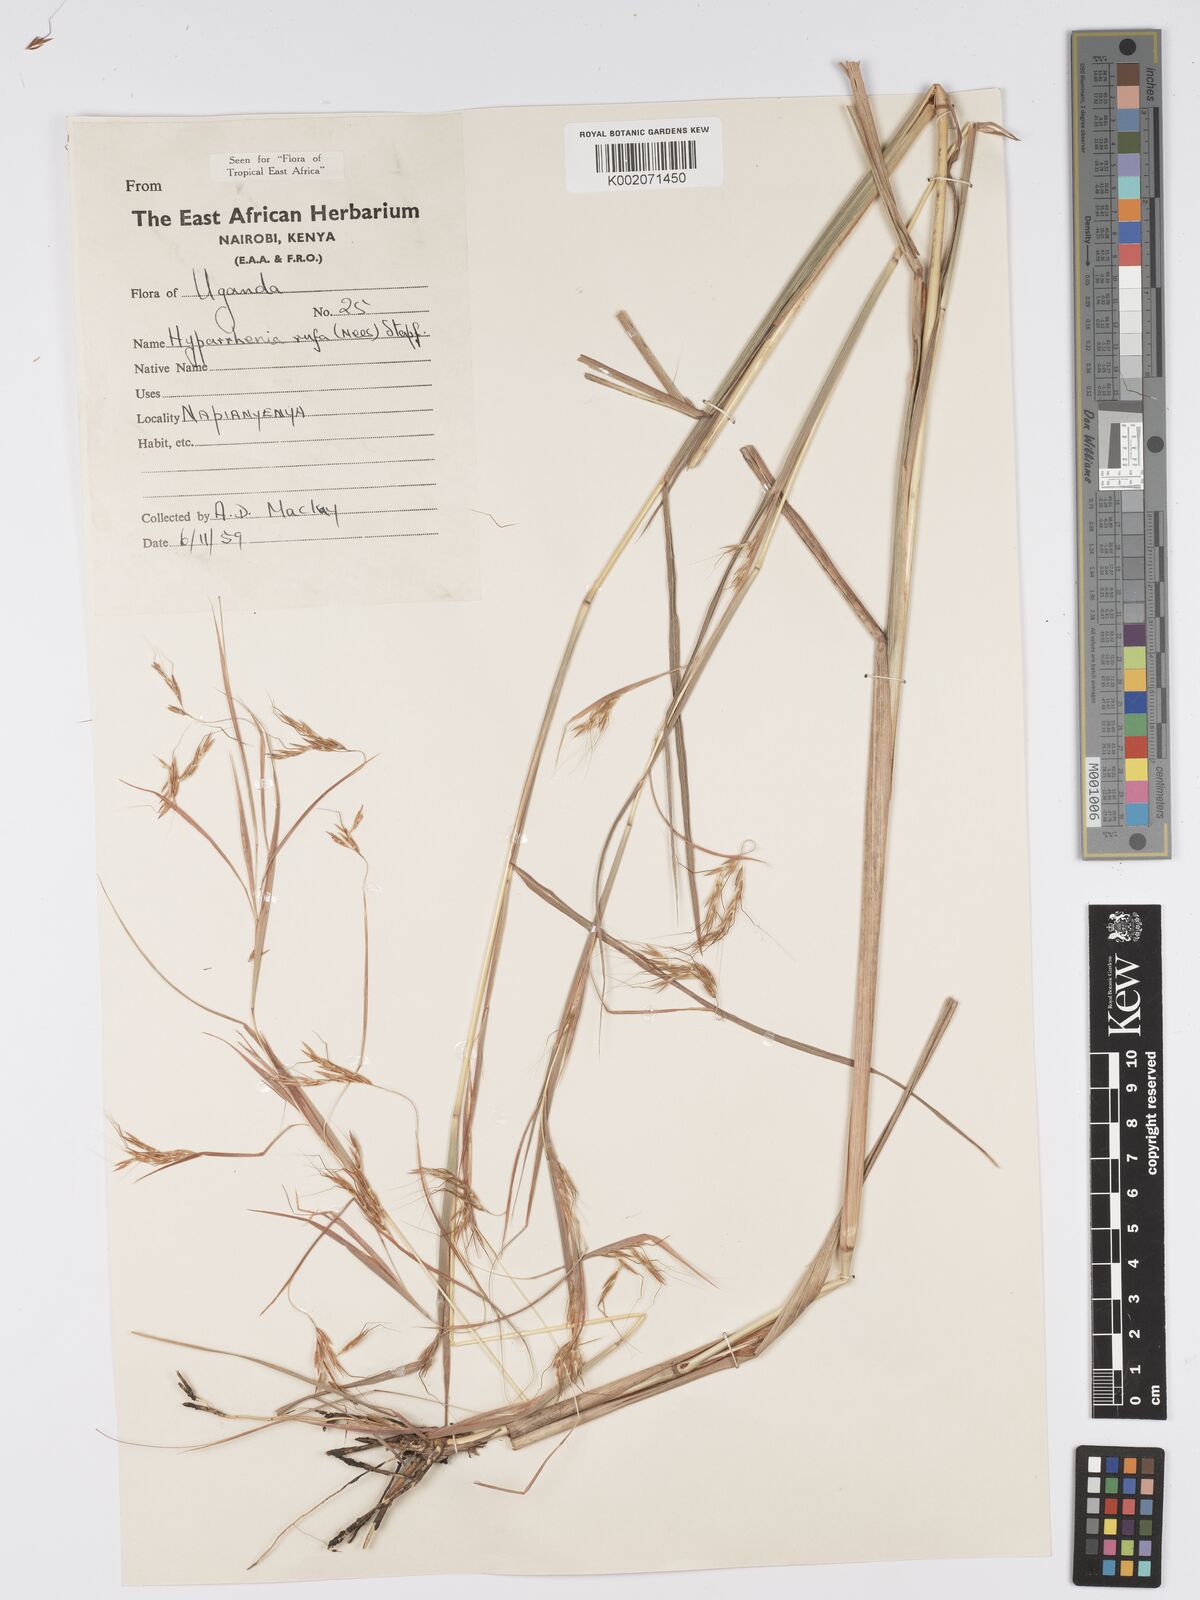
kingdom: Plantae
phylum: Tracheophyta
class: Liliopsida
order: Poales
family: Poaceae
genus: Hyparrhenia
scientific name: Hyparrhenia rufa
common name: Jaraguagrass
